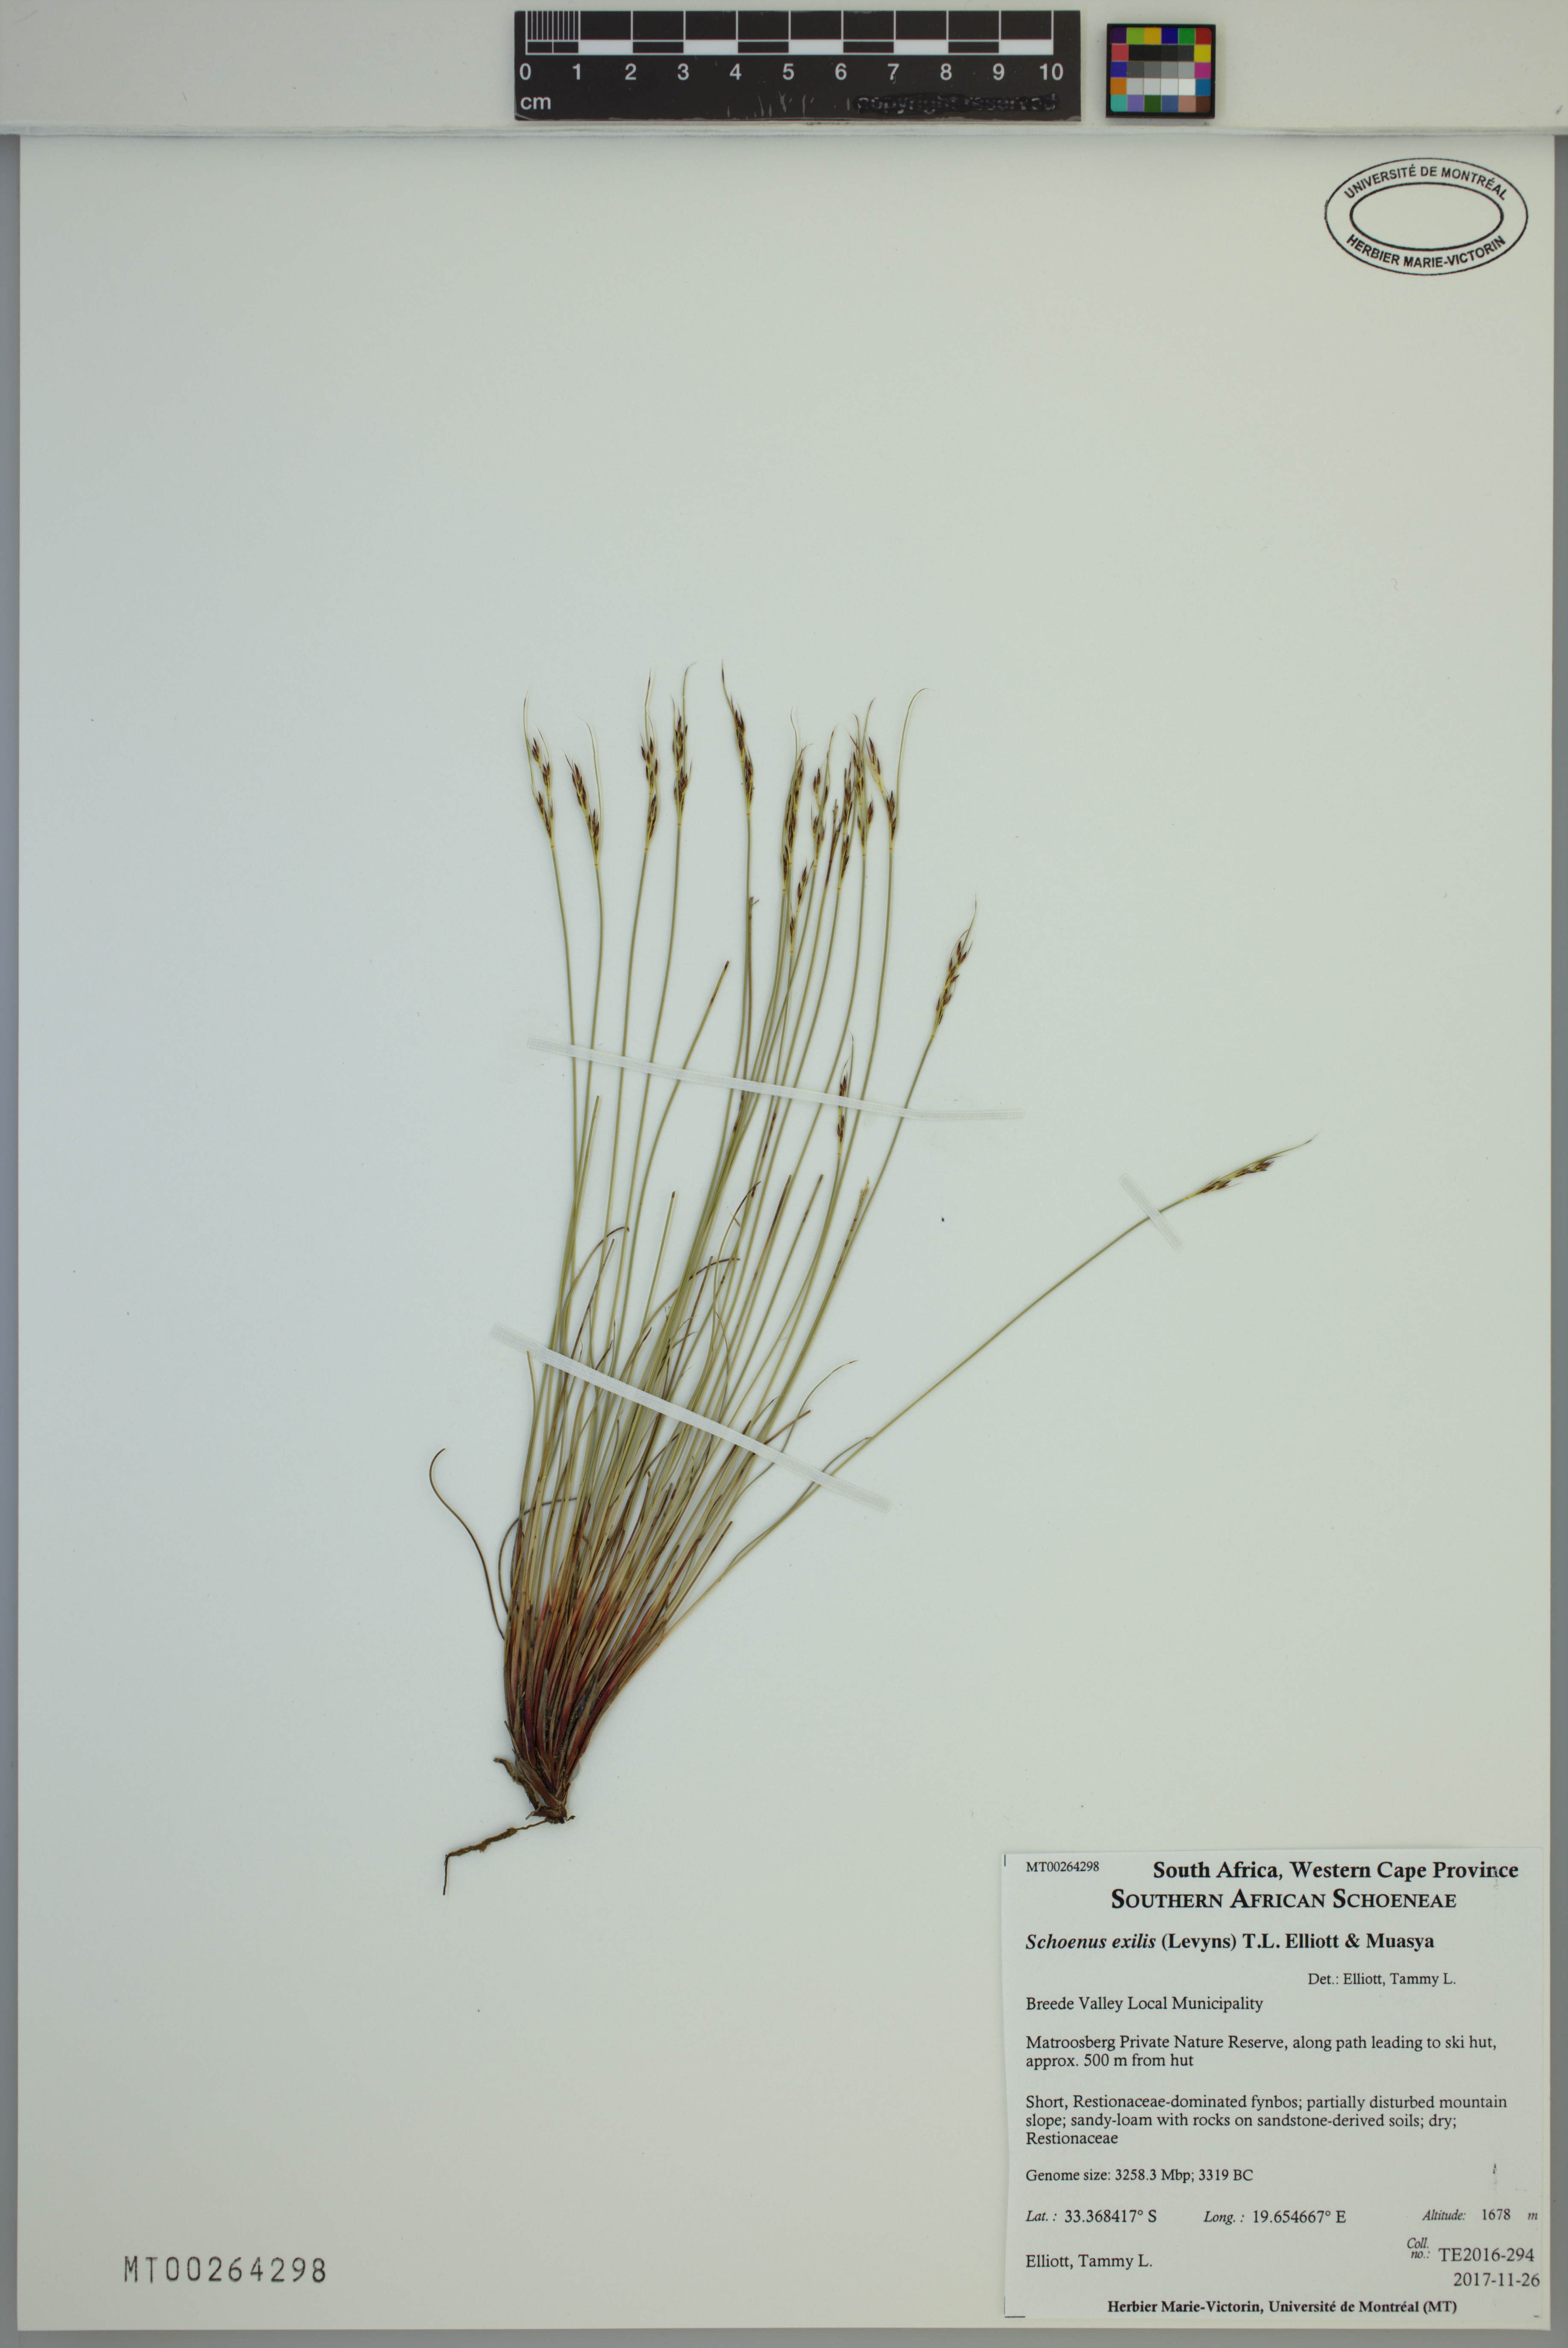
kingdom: Plantae
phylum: Tracheophyta
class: Liliopsida
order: Poales
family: Cyperaceae
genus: Schoenus
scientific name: Schoenus exilis
